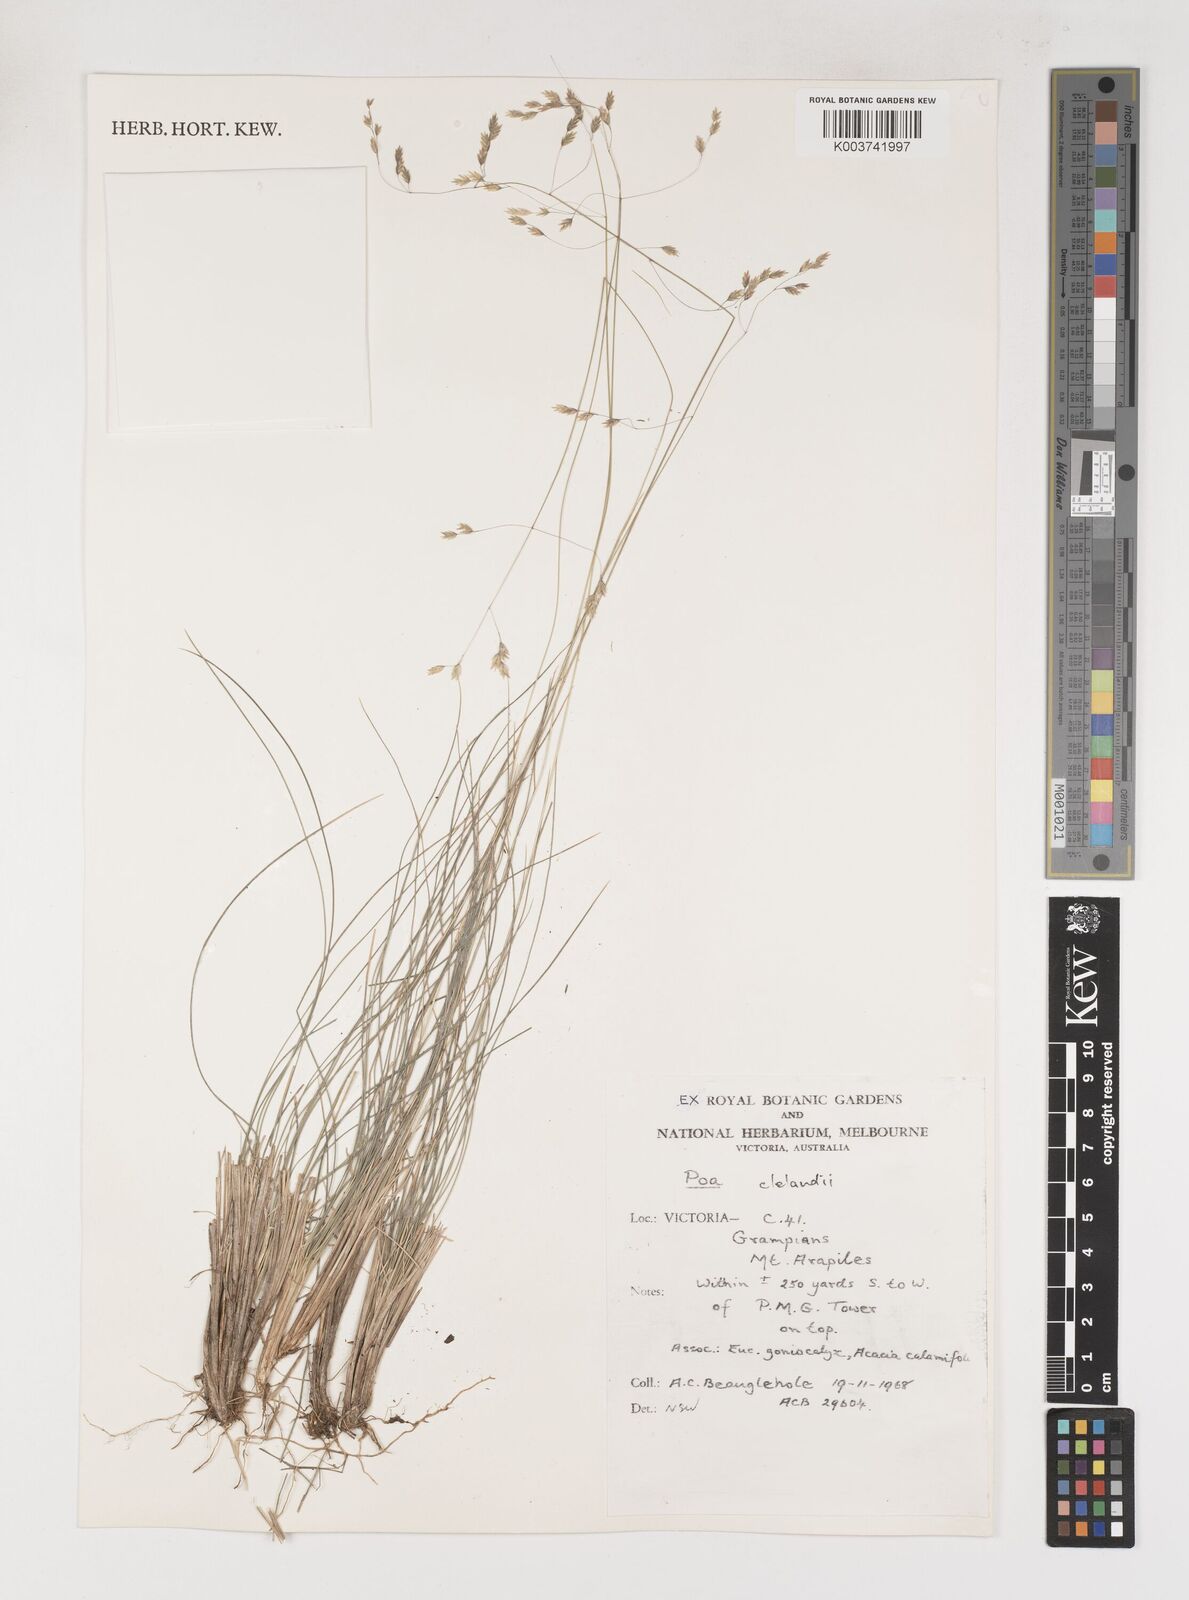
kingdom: Plantae
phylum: Tracheophyta
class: Liliopsida
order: Poales
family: Poaceae
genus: Poa
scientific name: Poa clelandii
